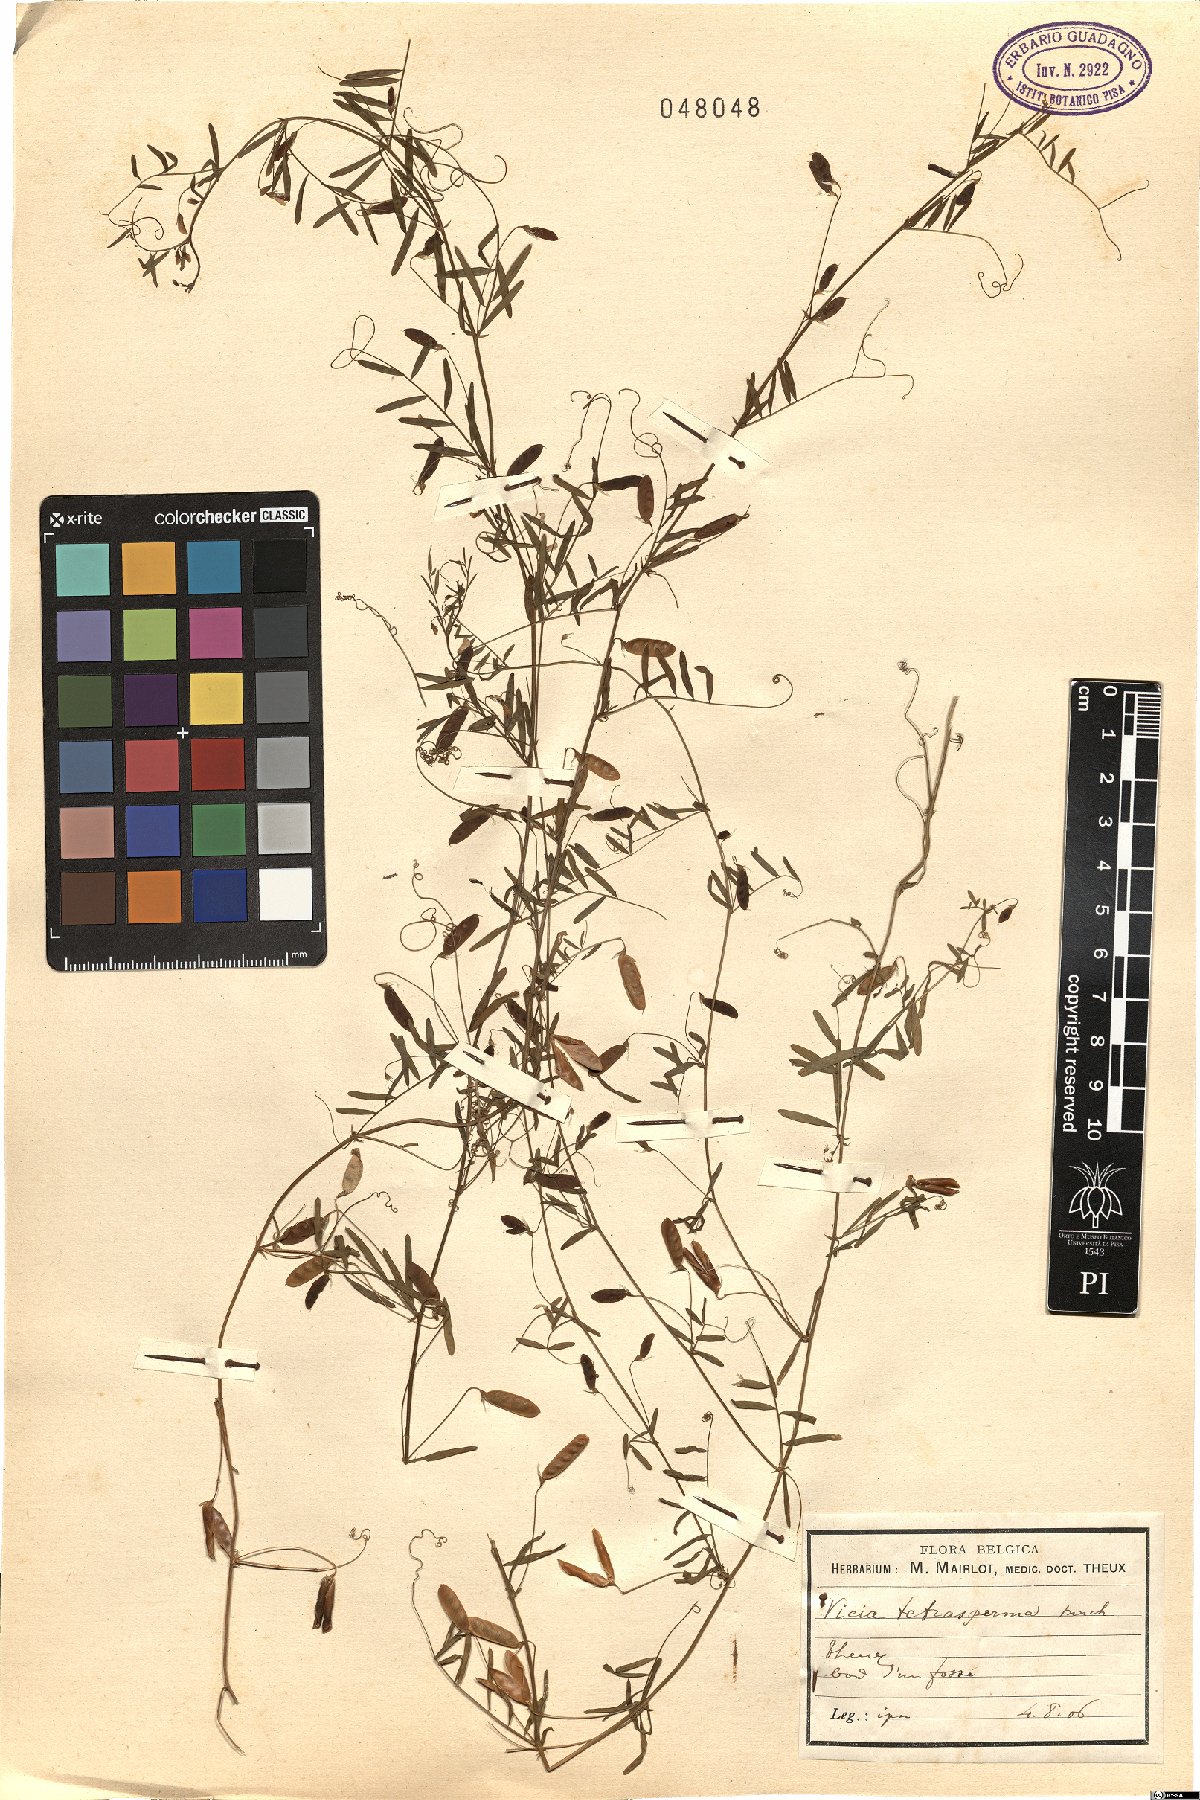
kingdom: Plantae
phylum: Tracheophyta
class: Magnoliopsida
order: Fabales
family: Fabaceae
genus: Vicia
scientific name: Vicia tetrasperma
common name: Smooth tare
